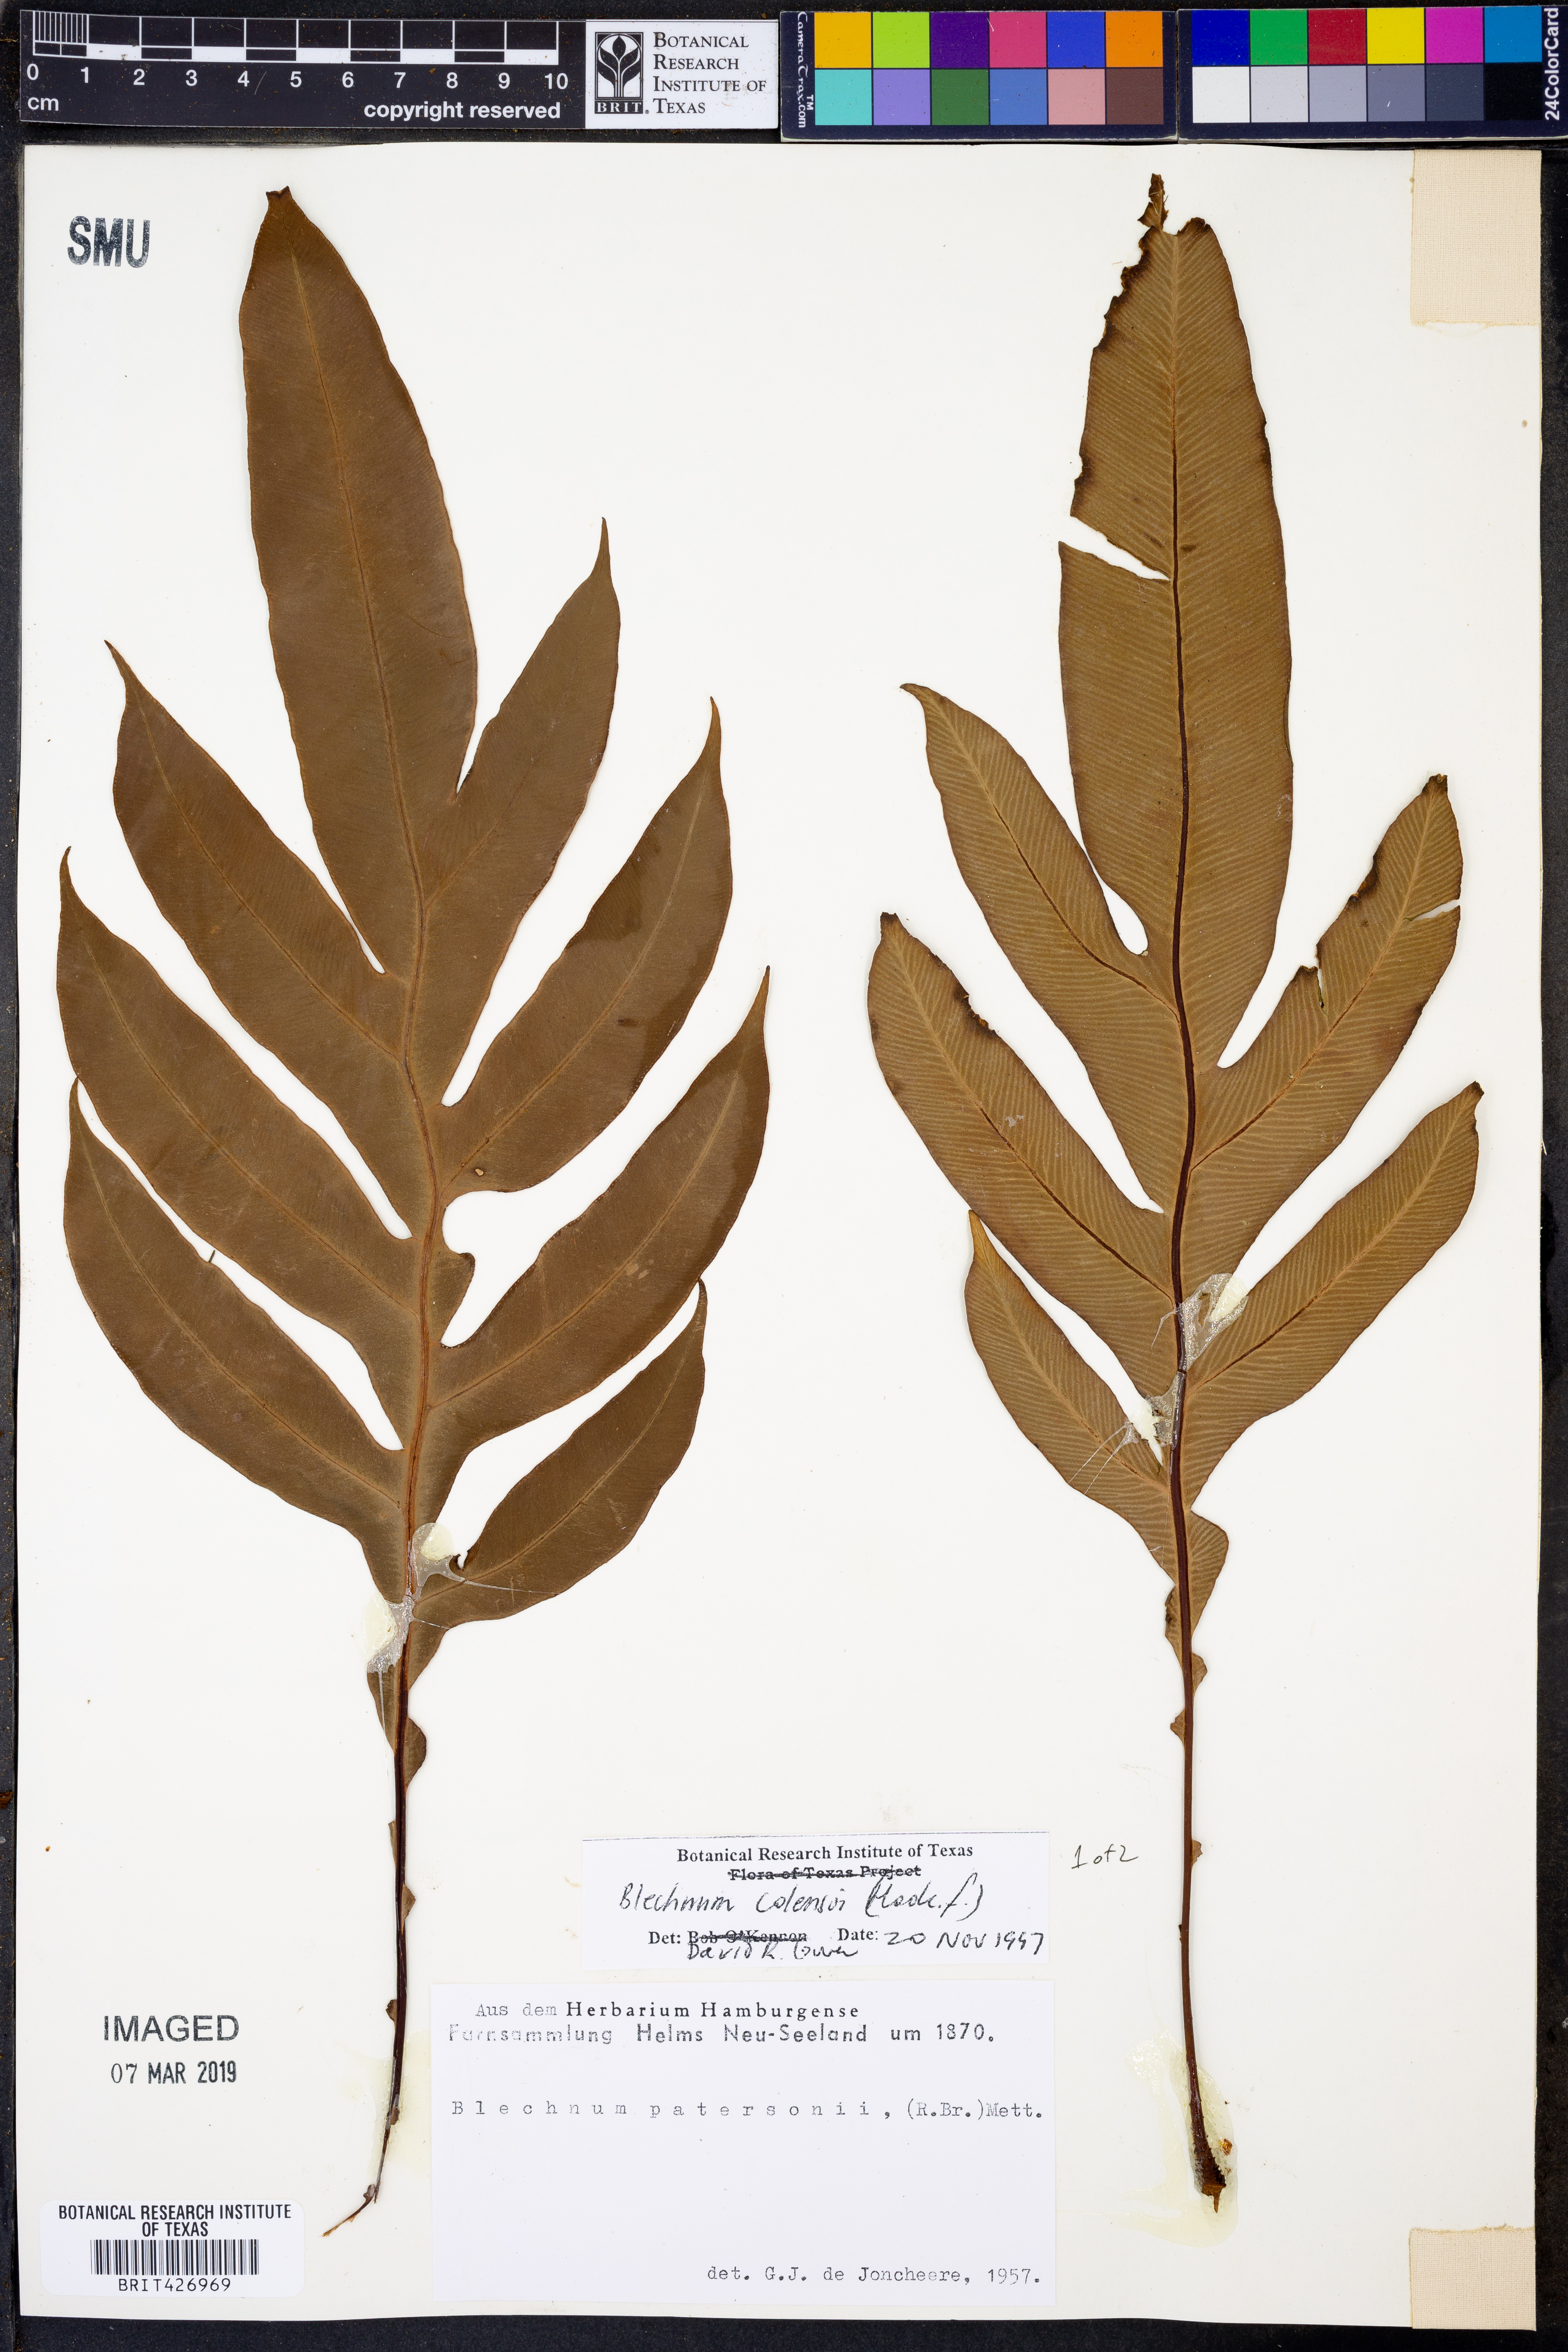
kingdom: Plantae
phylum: Tracheophyta
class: Polypodiopsida
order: Polypodiales
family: Blechnaceae
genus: Austroblechnum
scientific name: Austroblechnum colensoi
